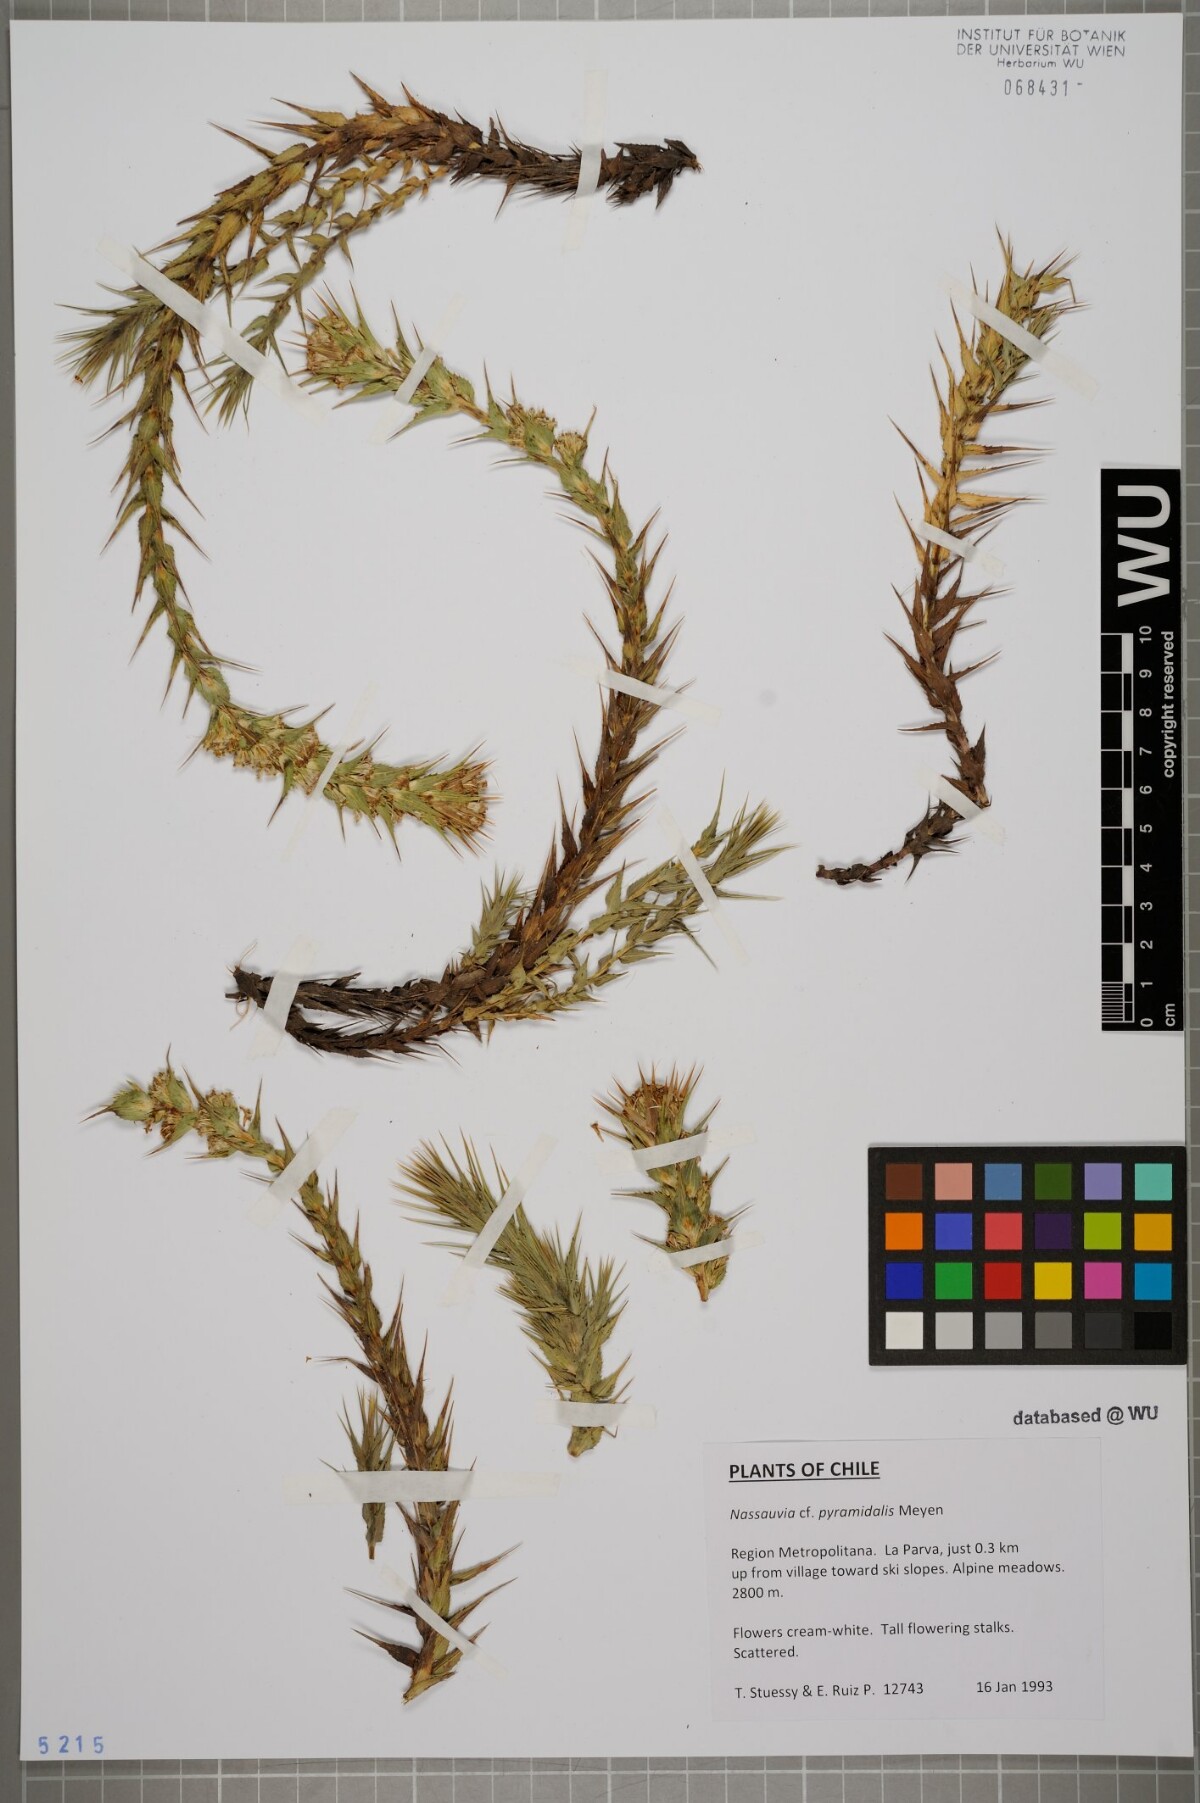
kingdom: Plantae
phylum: Tracheophyta
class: Magnoliopsida
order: Asterales
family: Asteraceae
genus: Nassauvia
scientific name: Nassauvia pyramidalis
